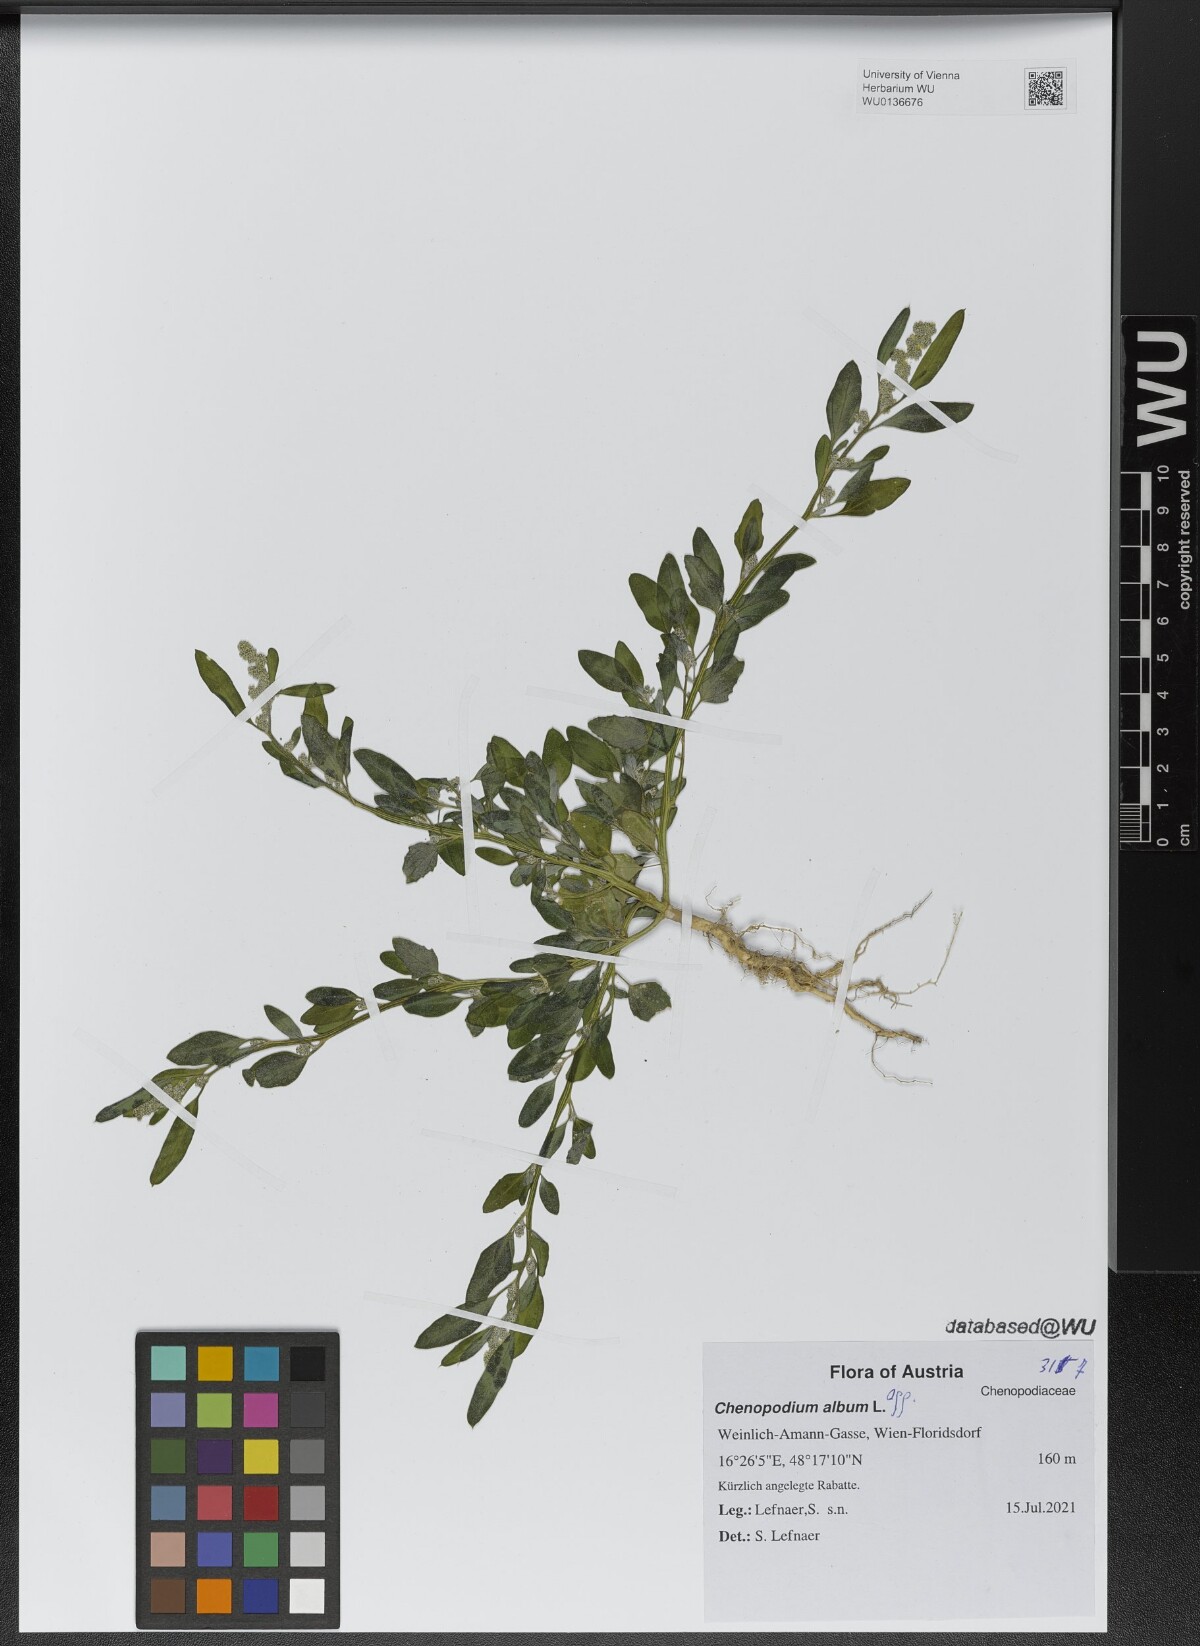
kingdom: Plantae
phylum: Tracheophyta
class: Magnoliopsida
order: Caryophyllales
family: Amaranthaceae
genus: Chenopodium
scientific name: Chenopodium album
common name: Fat-hen
